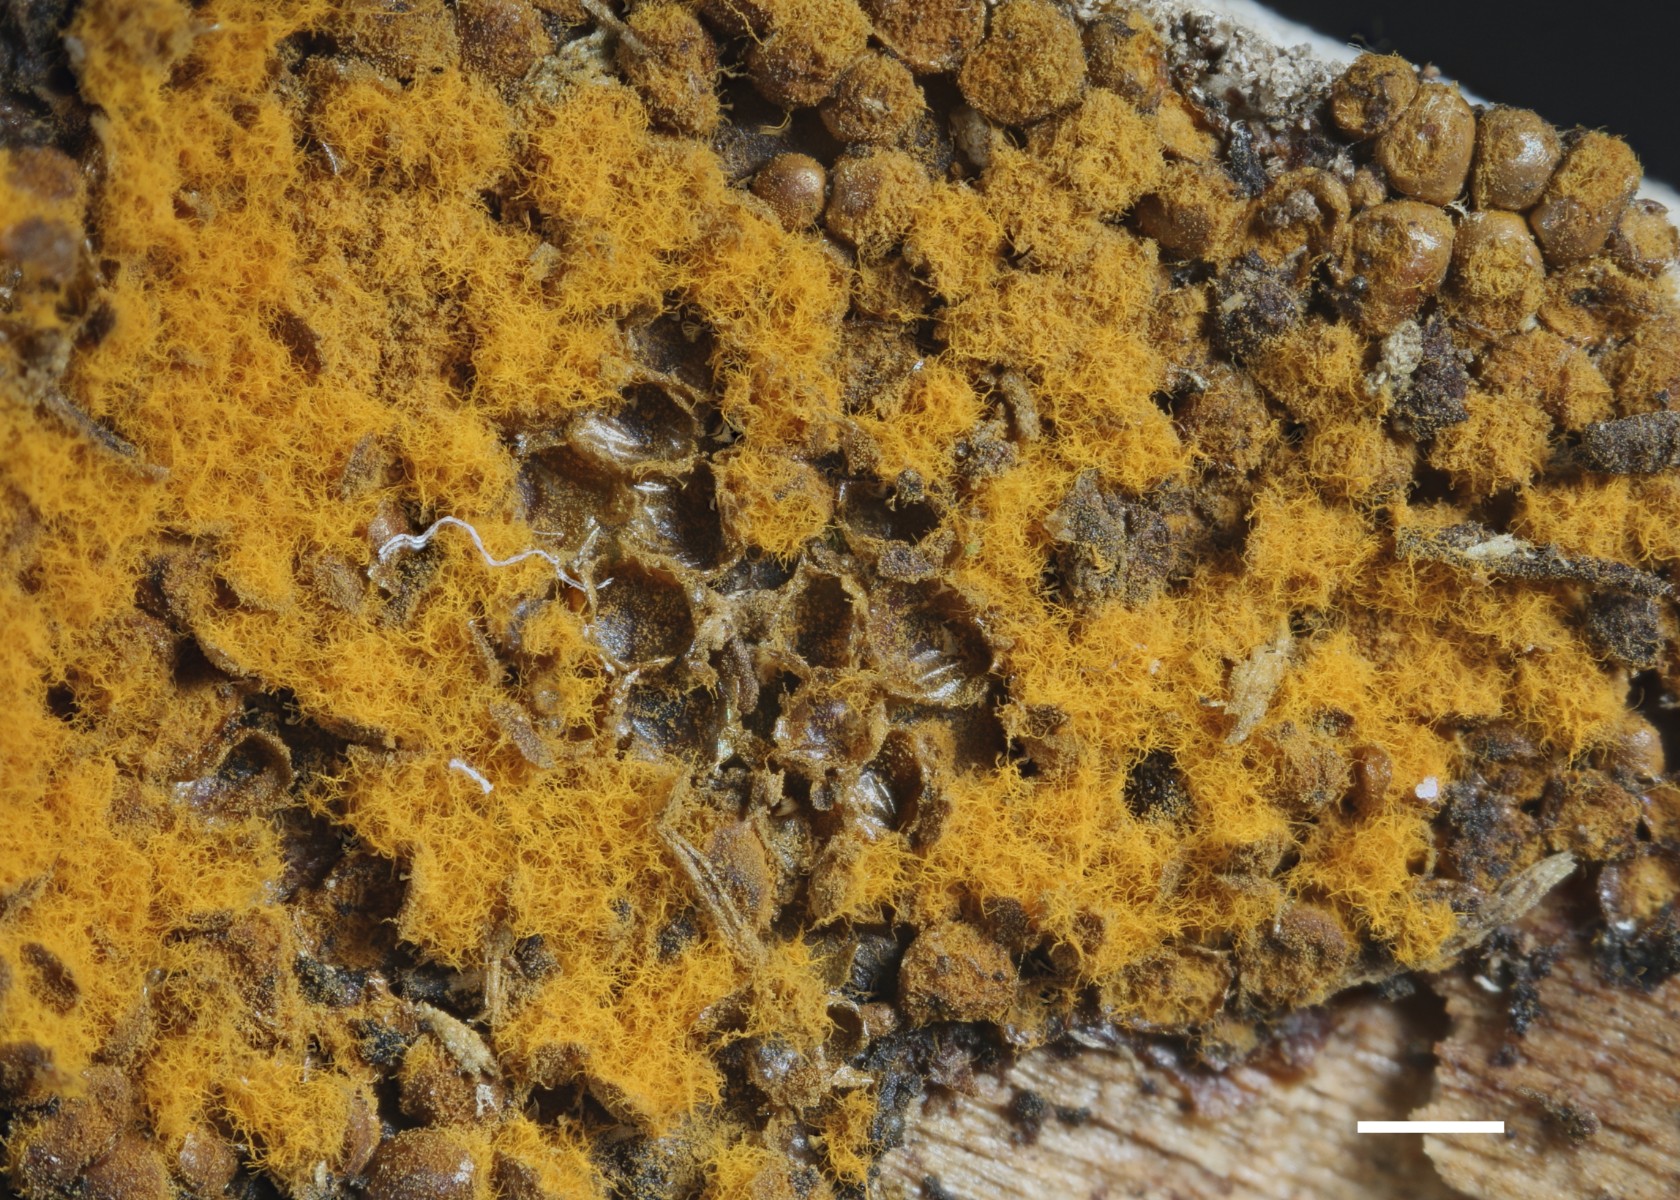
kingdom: Protozoa
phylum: Mycetozoa
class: Myxomycetes
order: Trichiales
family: Trichiaceae
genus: Trichia
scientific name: Trichia scabra
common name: tæppe-hårbold
